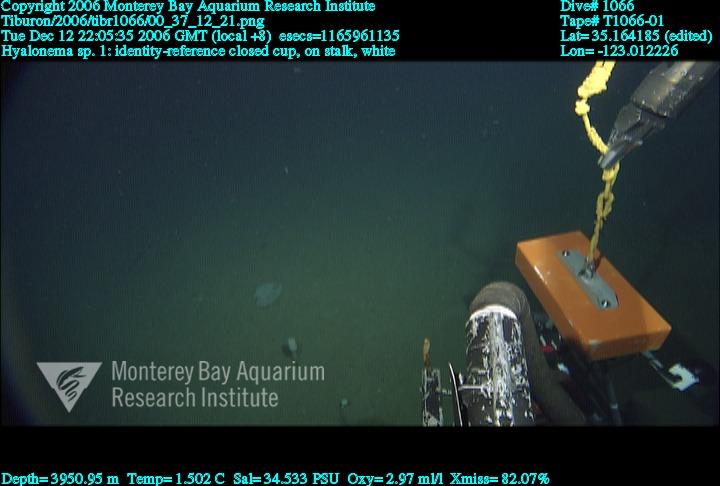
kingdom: Animalia
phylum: Porifera
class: Hexactinellida
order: Amphidiscosida
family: Hyalonematidae
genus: Hyalonema
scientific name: Hyalonema
